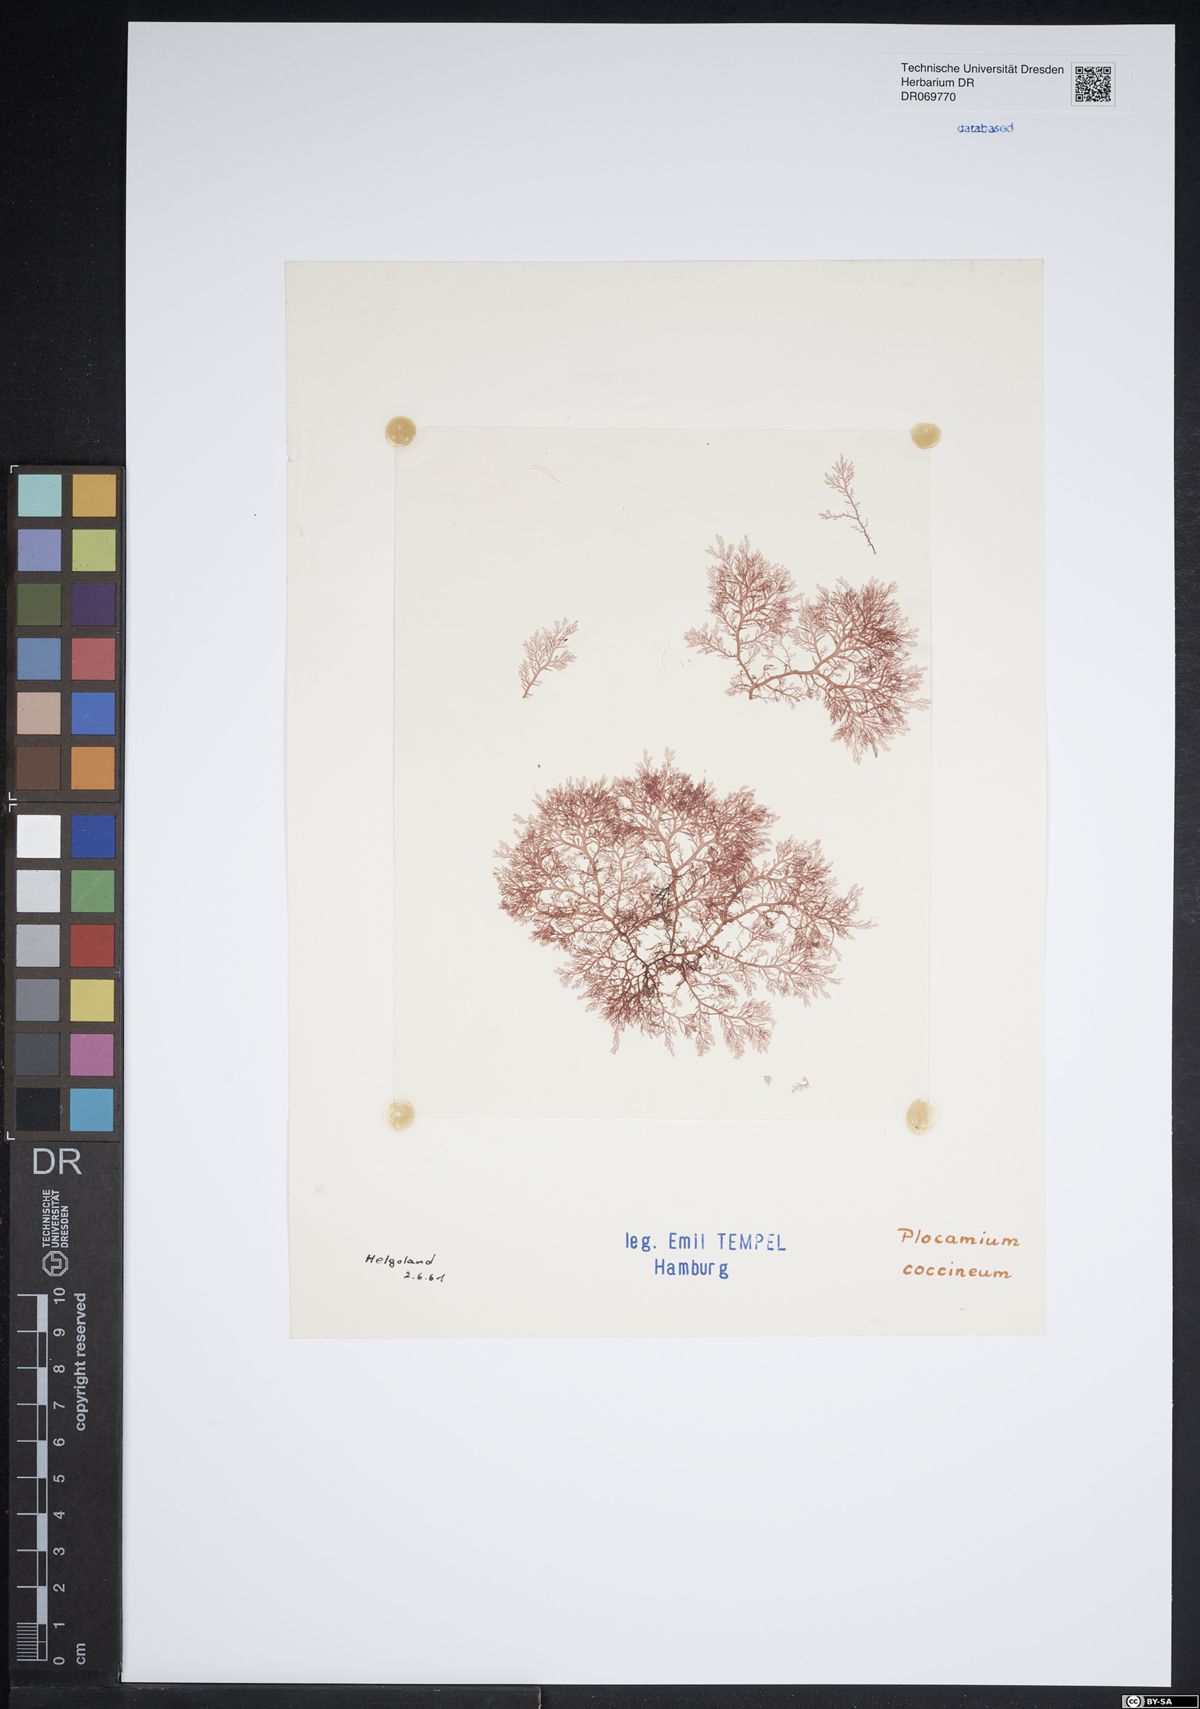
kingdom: Plantae
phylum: Rhodophyta
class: Florideophyceae
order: Plocamiales
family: Plocamiaceae
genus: Plocamium
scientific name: Plocamium cartilagineum
